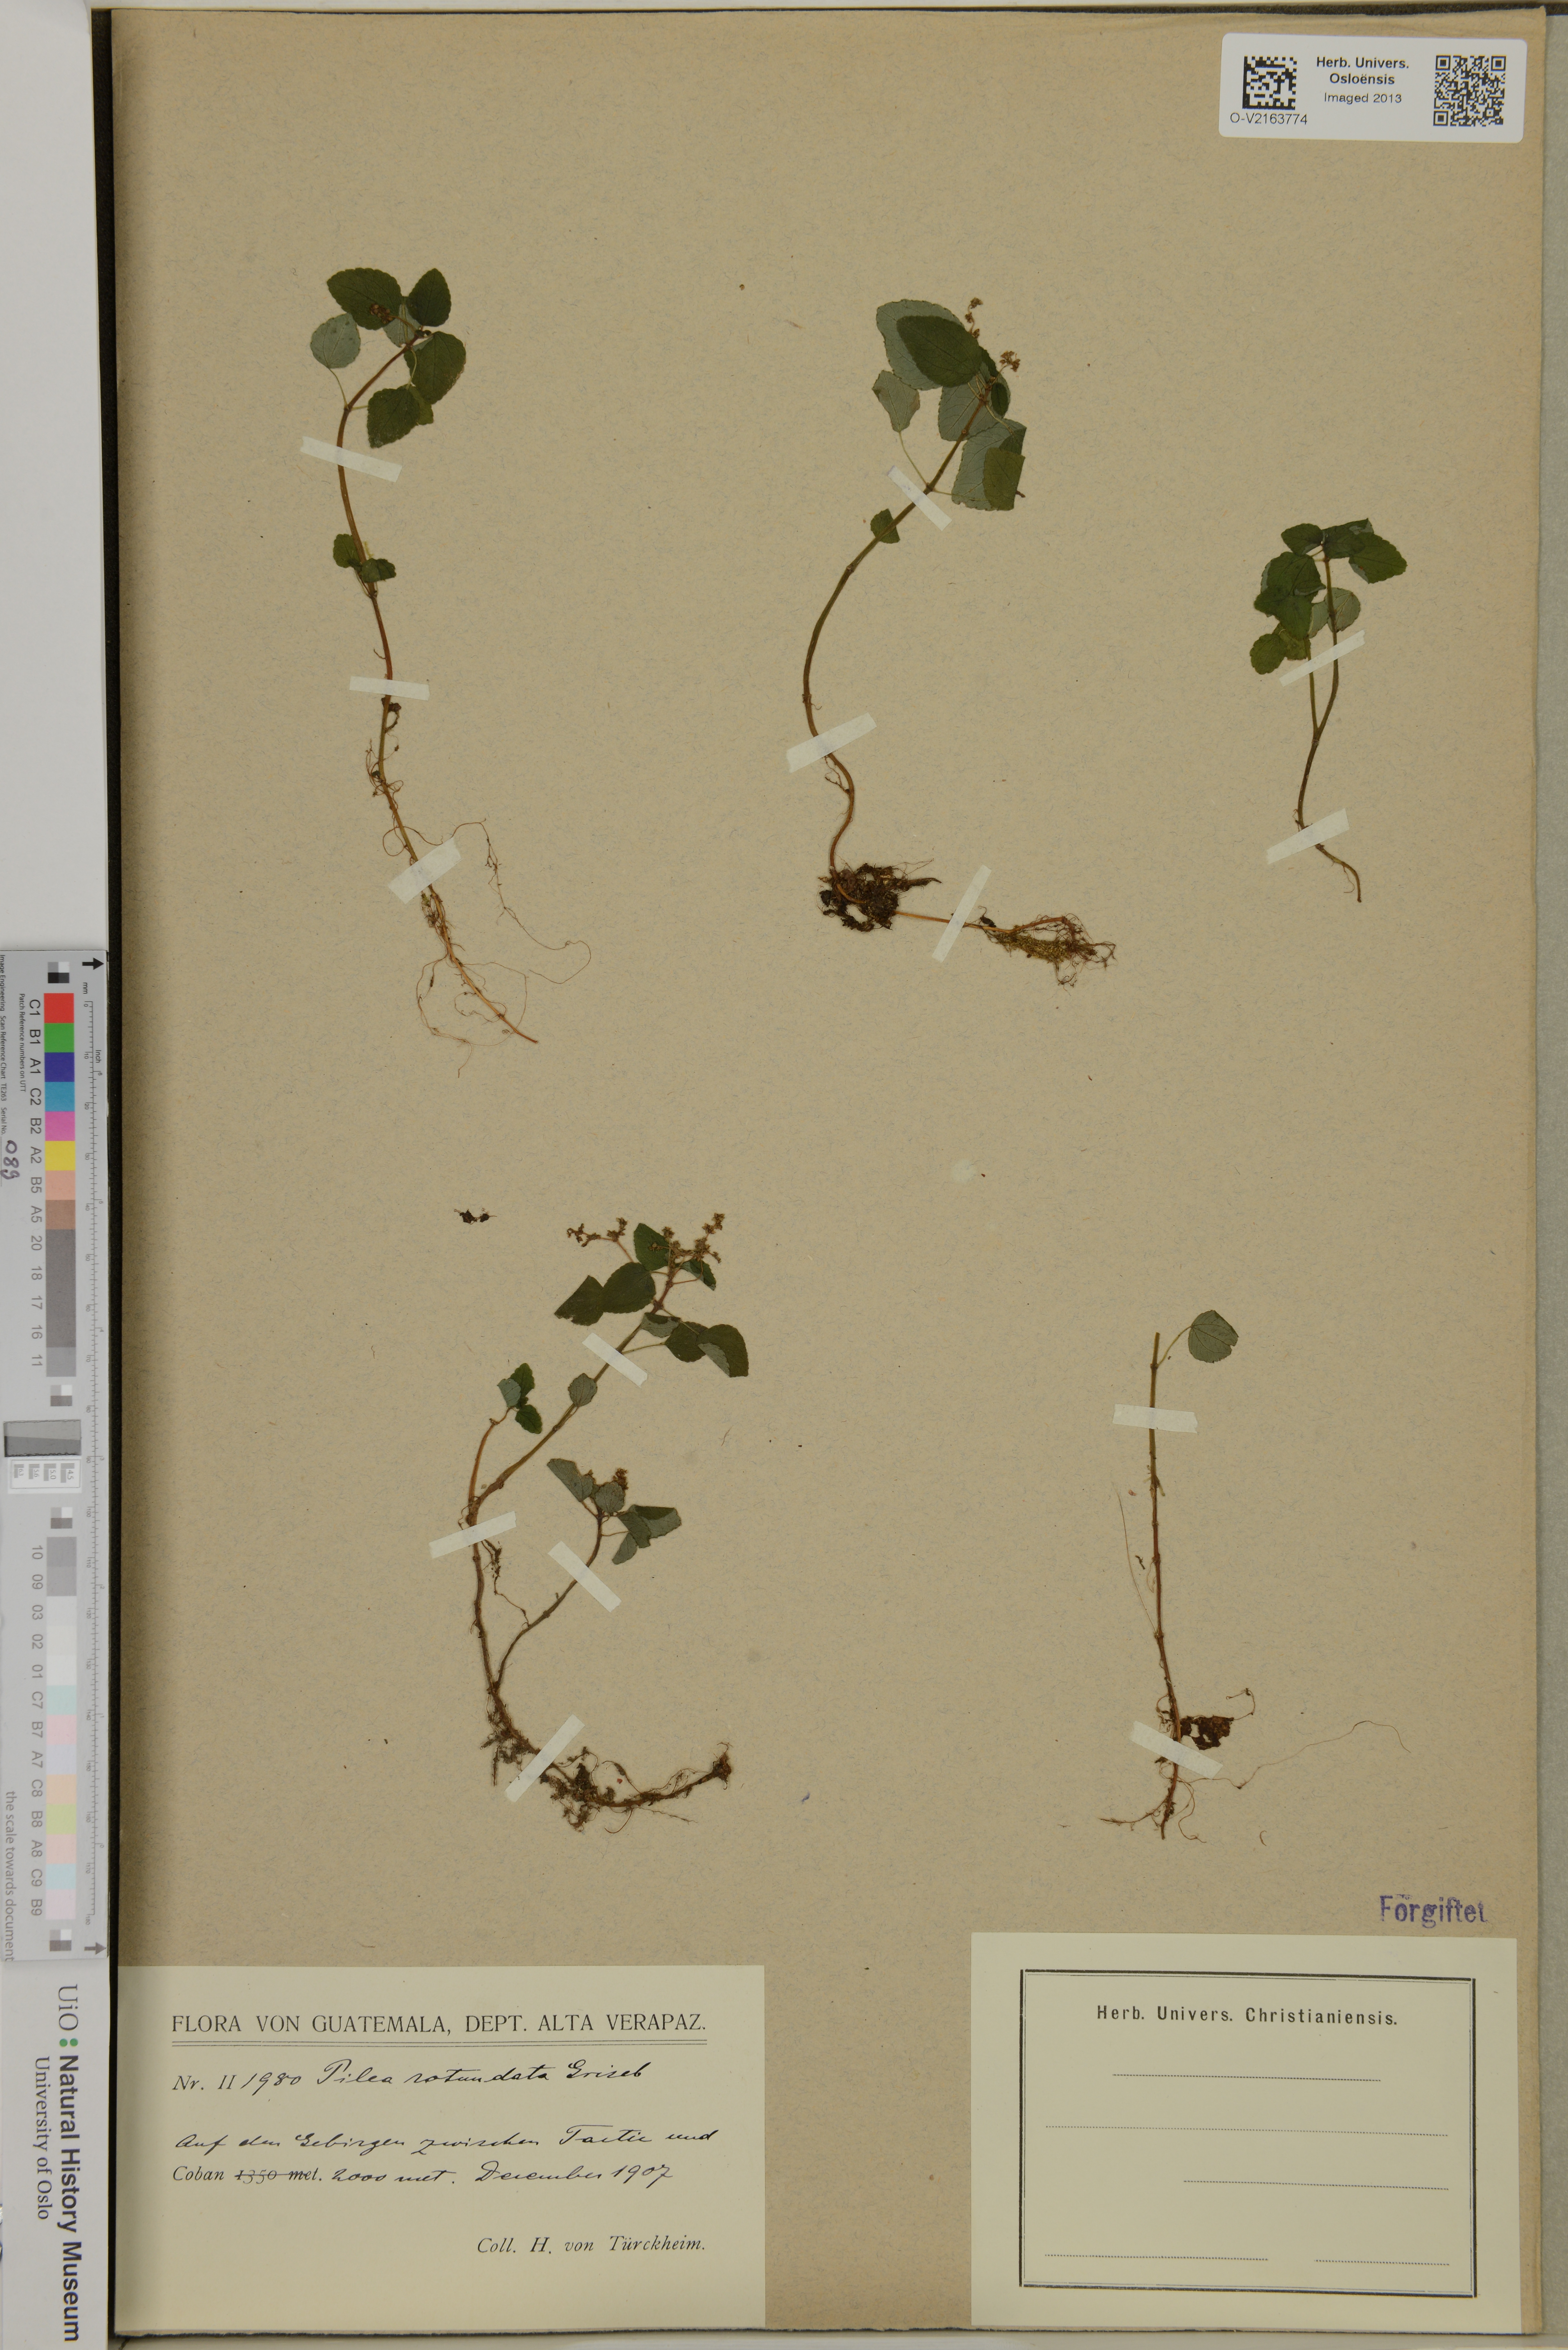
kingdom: Plantae
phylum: Tracheophyta
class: Magnoliopsida
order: Rosales
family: Urticaceae
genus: Pilea
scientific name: Pilea rotundata
